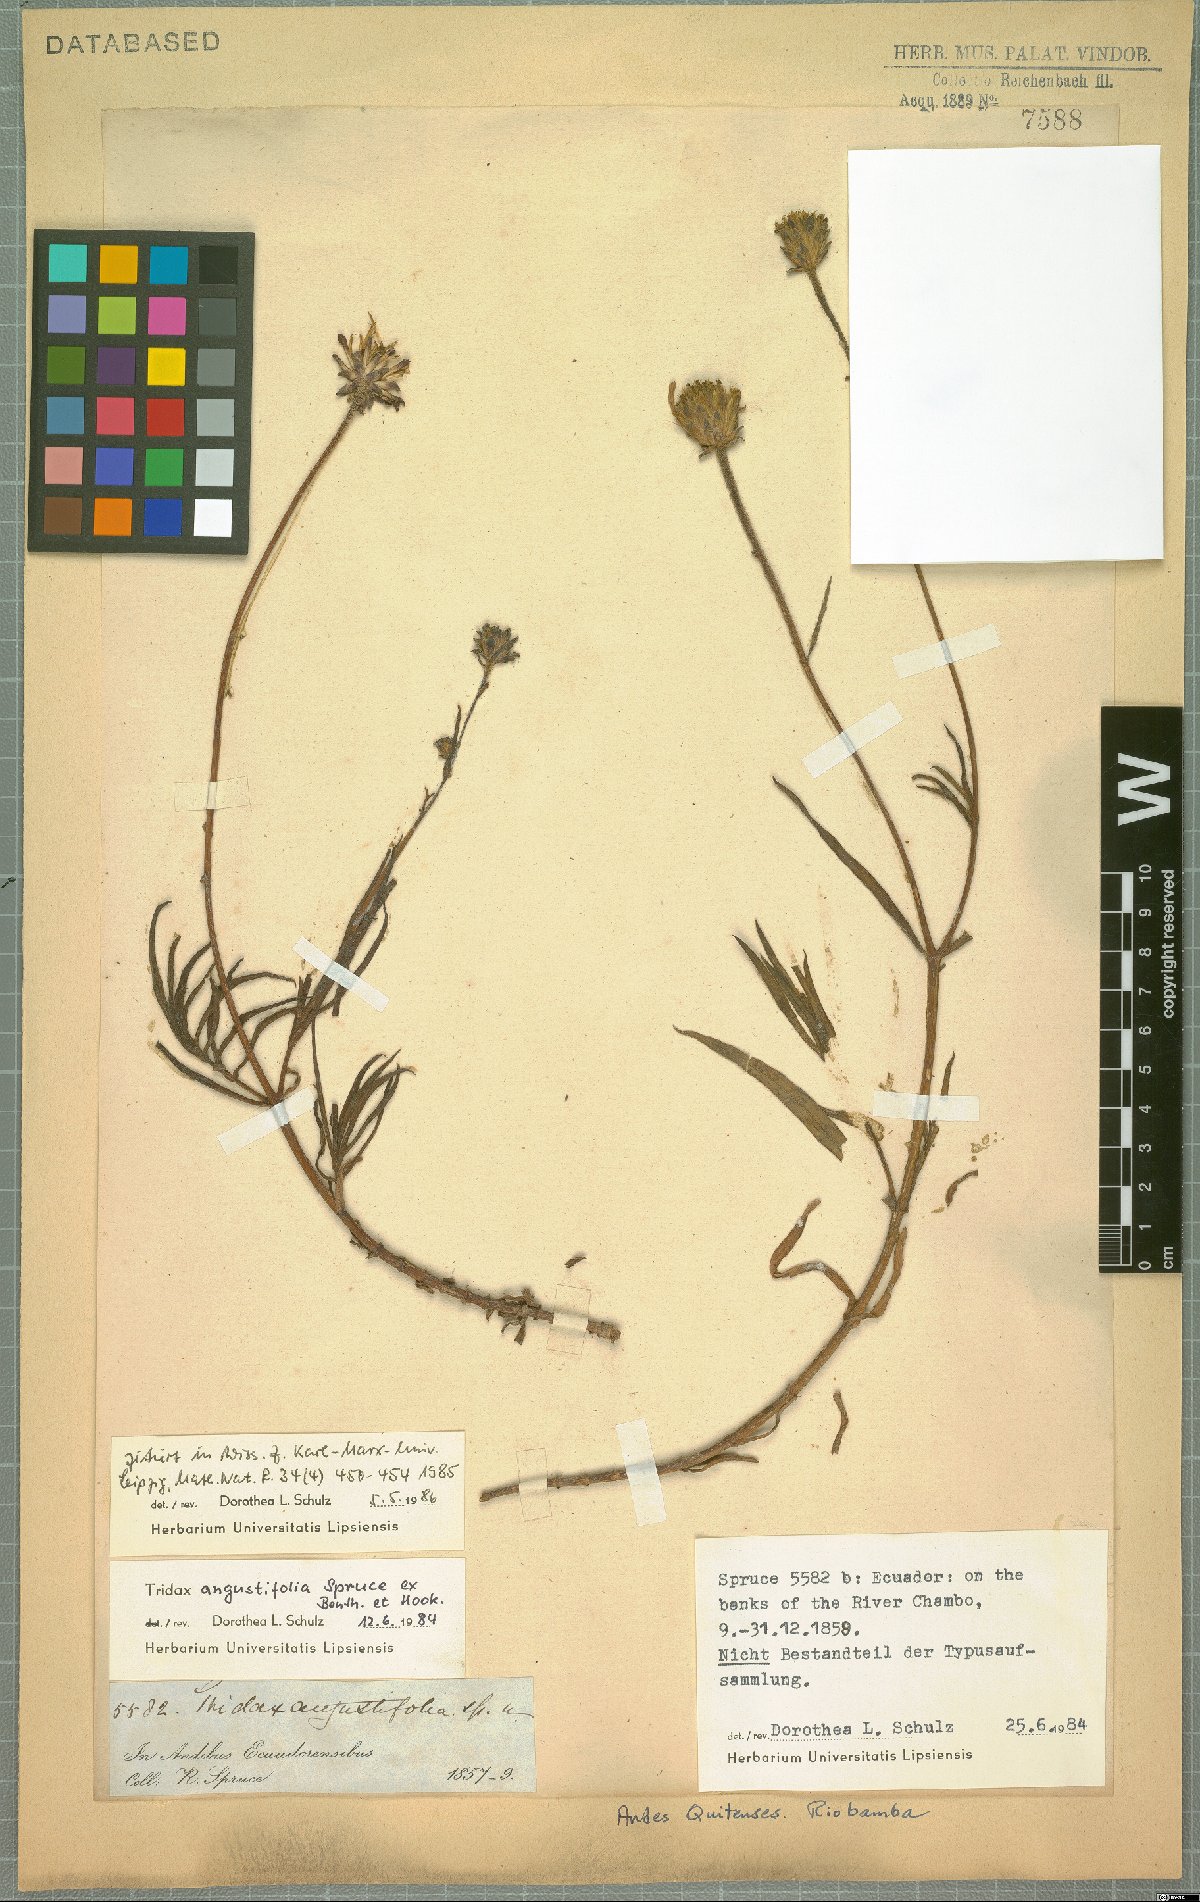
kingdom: Plantae
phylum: Tracheophyta
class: Magnoliopsida
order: Asterales
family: Asteraceae
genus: Tridax
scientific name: Tridax angustifolia
